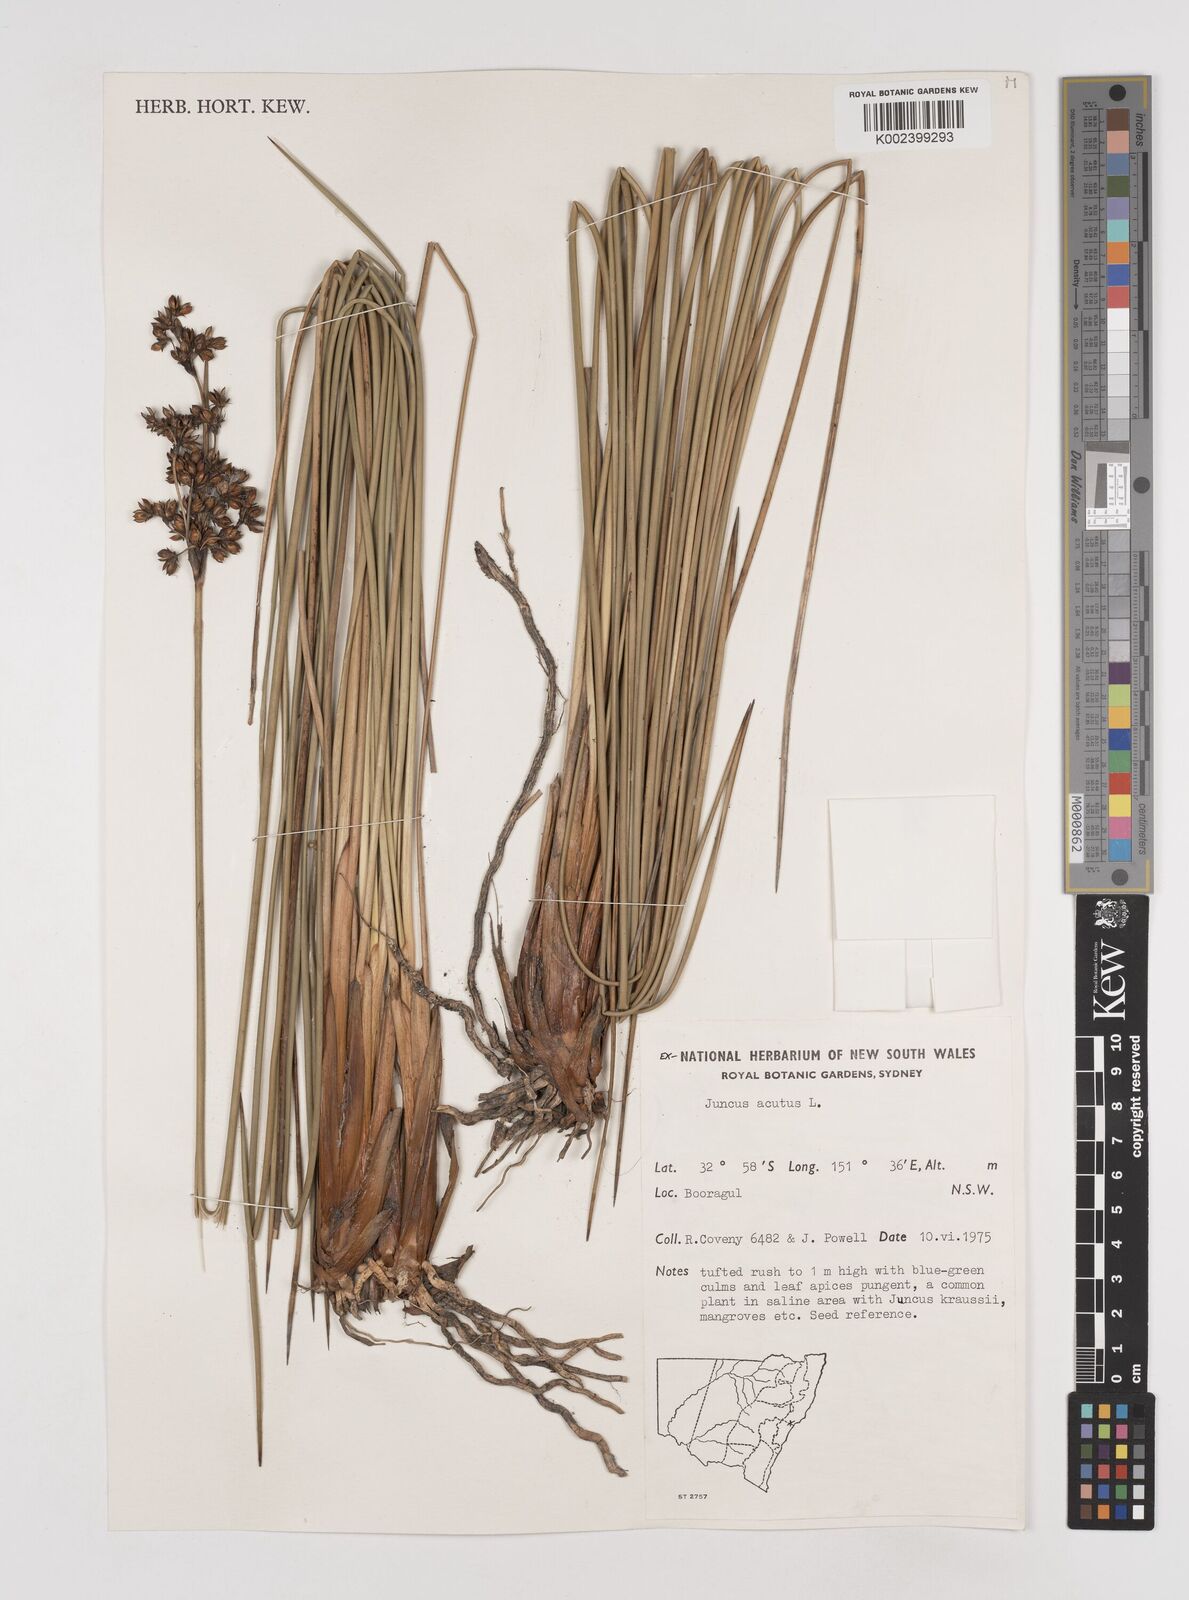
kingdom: Plantae
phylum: Tracheophyta
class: Liliopsida
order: Poales
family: Juncaceae
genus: Juncus
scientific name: Juncus acutus
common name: Sharp rush
